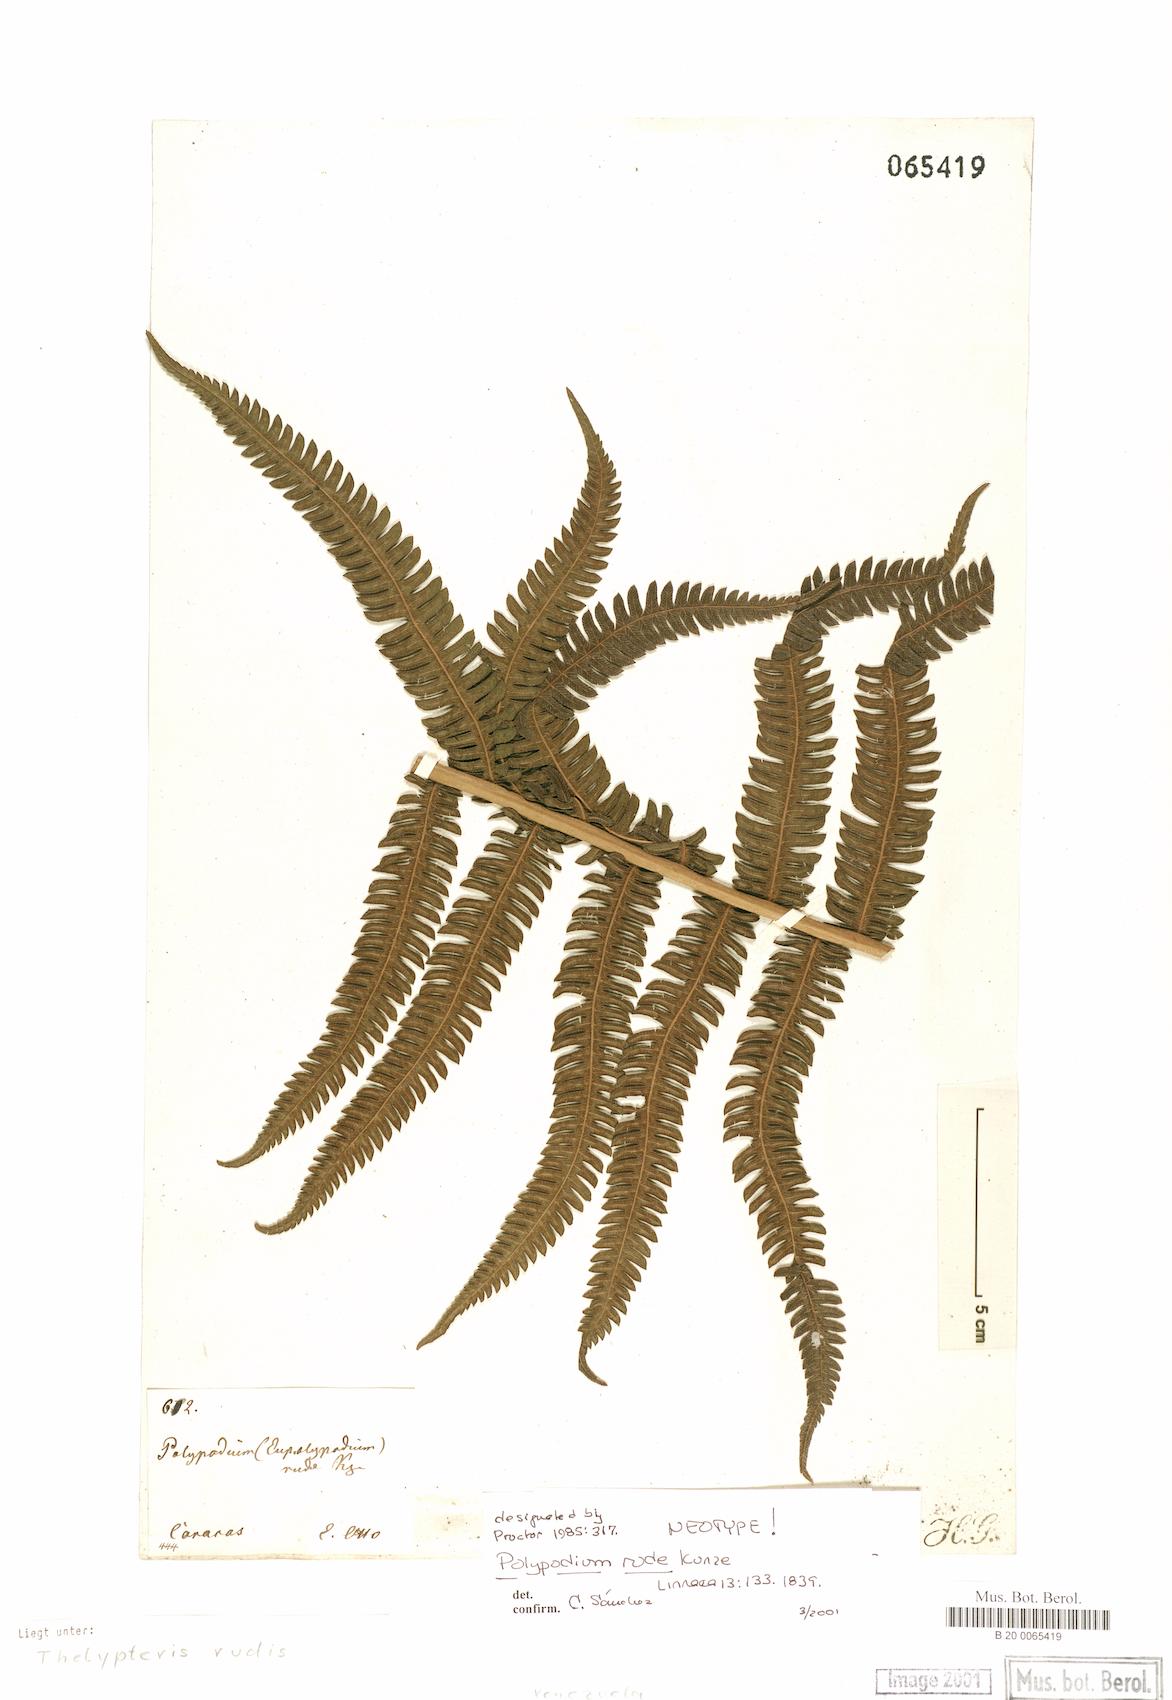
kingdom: Plantae
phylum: Tracheophyta
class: Polypodiopsida
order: Polypodiales
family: Thelypteridaceae
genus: Amauropelta
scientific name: Amauropelta rudis
